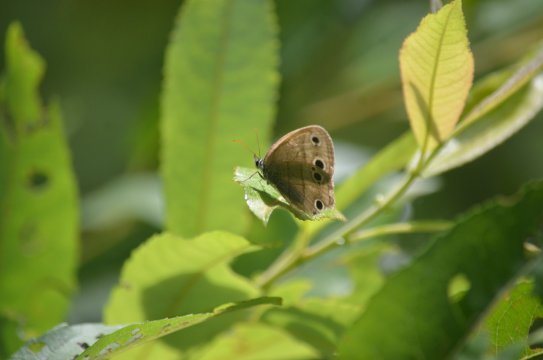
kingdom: Animalia
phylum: Arthropoda
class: Insecta
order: Lepidoptera
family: Nymphalidae
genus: Euptychia
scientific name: Euptychia cymela
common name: Little Wood Satyr
